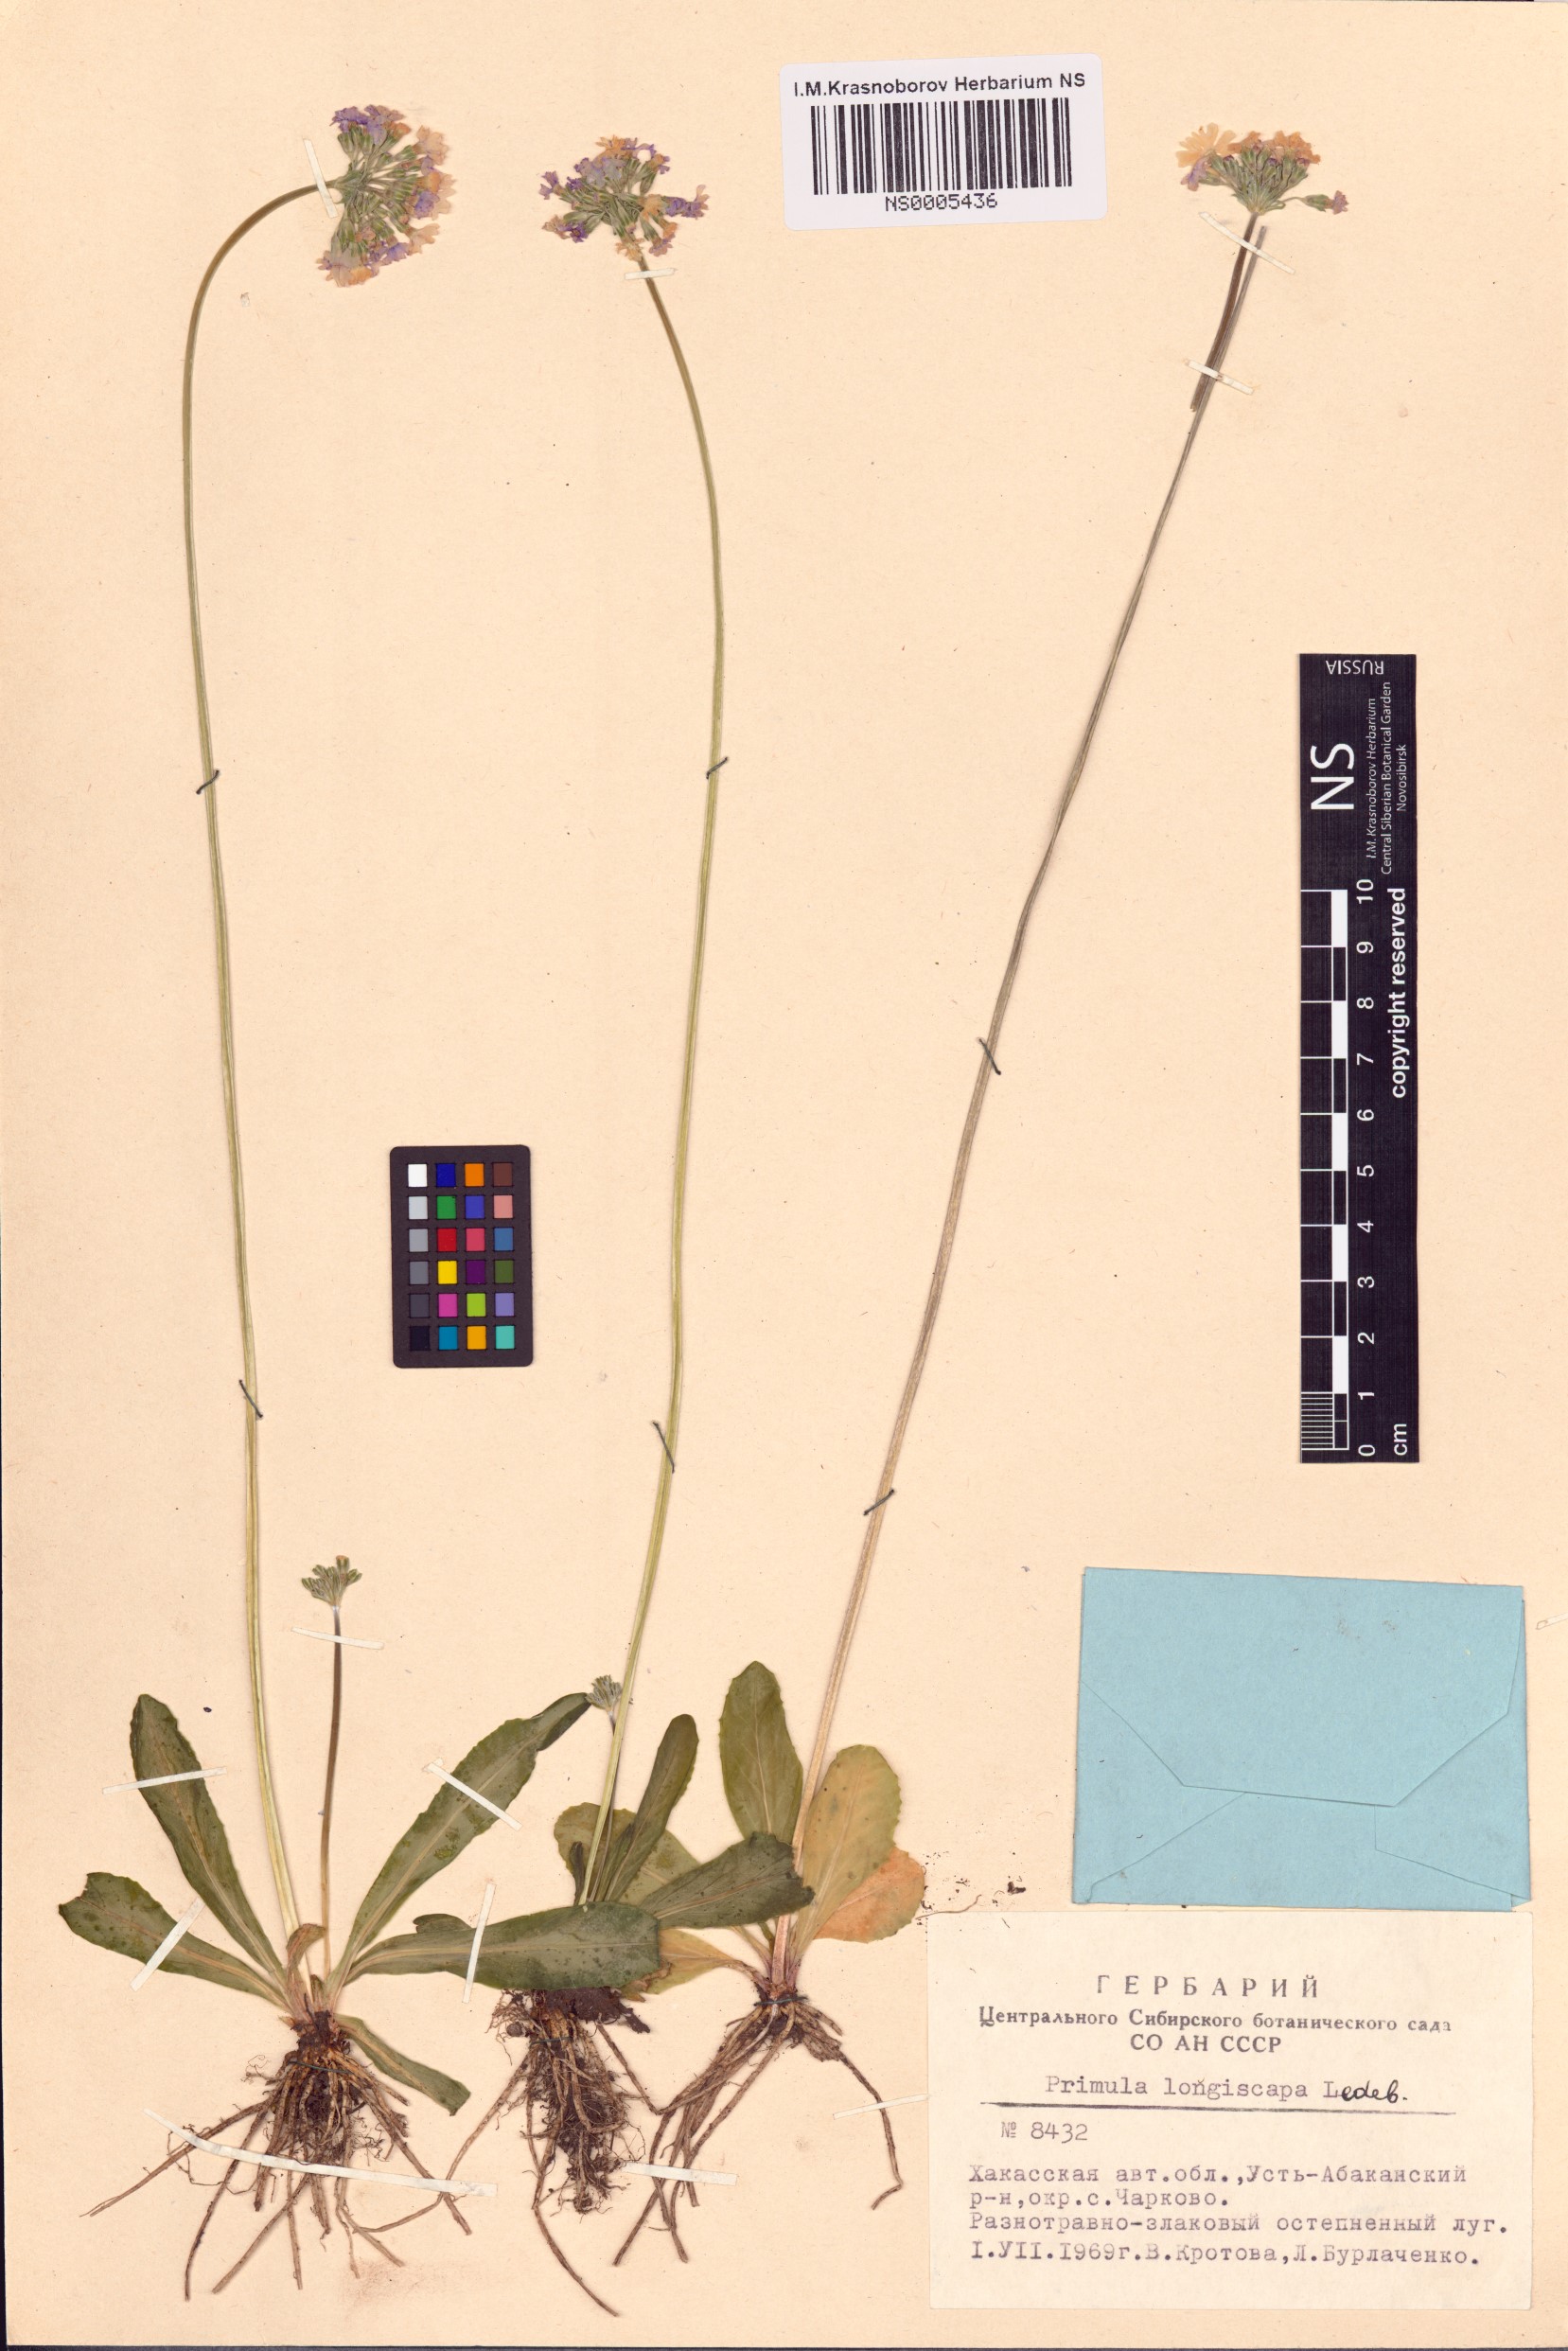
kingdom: Plantae
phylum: Tracheophyta
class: Magnoliopsida
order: Ericales
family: Primulaceae
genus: Primula
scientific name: Primula longiscapa
